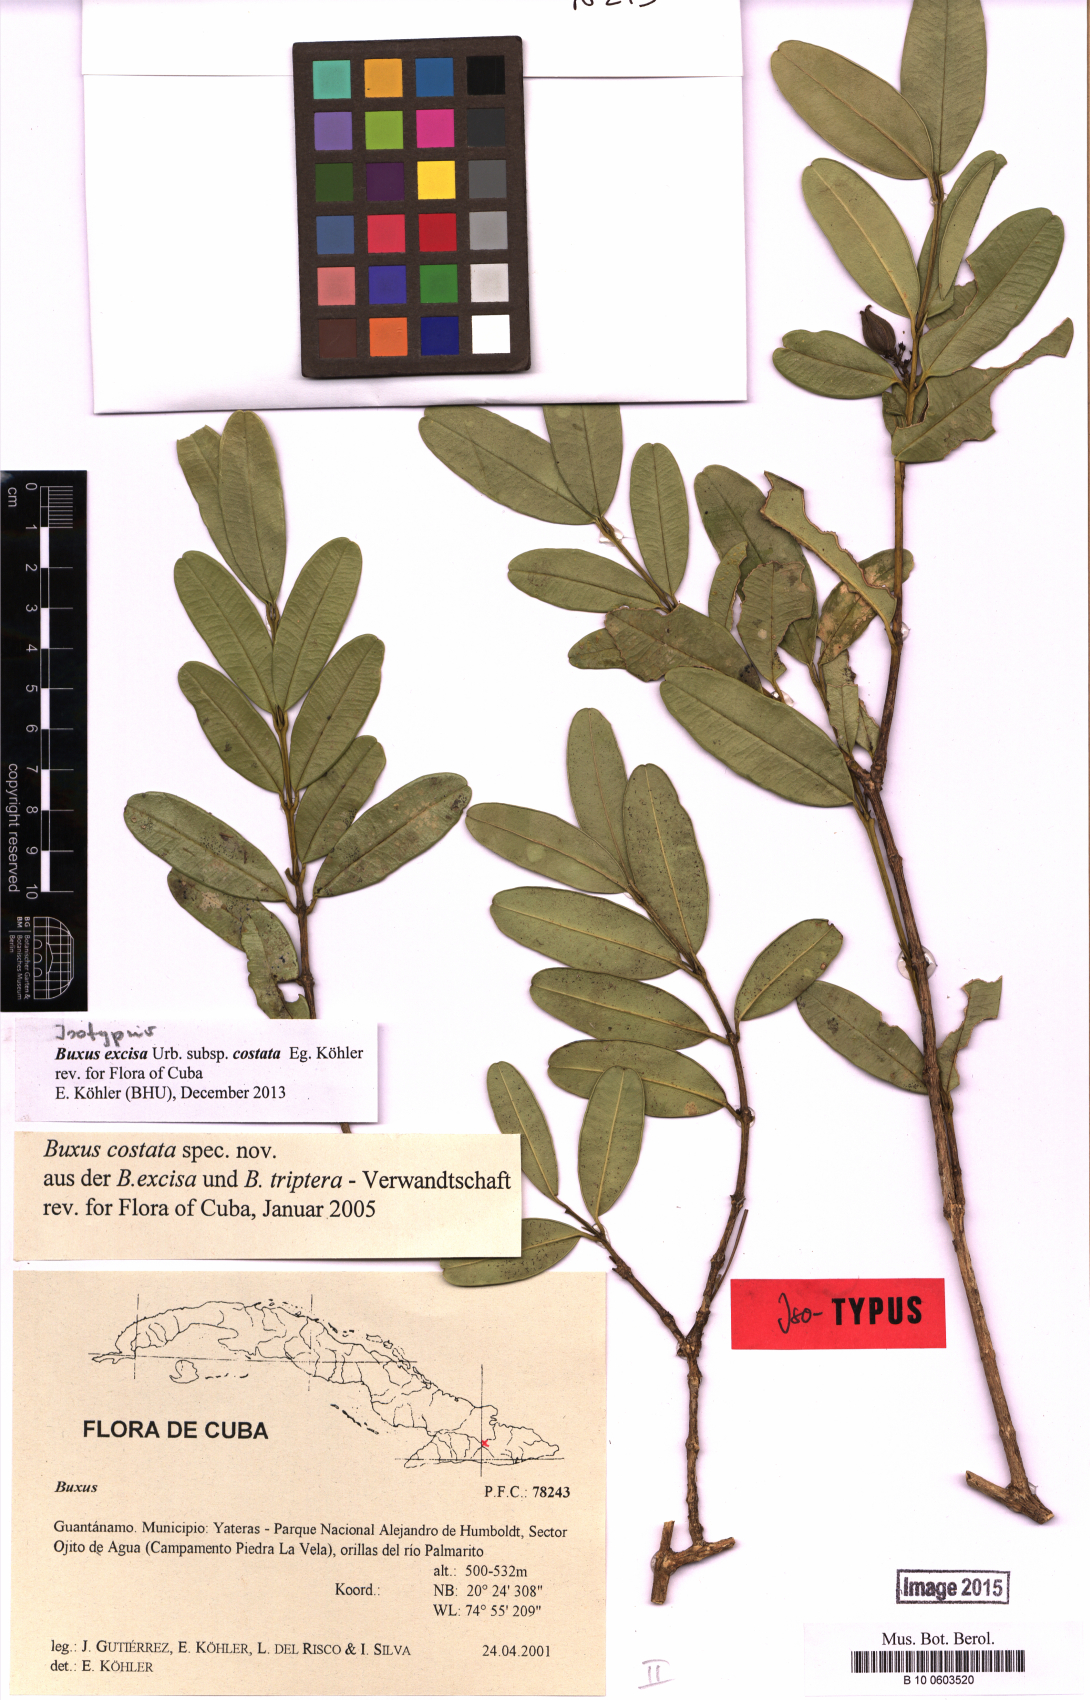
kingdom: Plantae
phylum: Tracheophyta
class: Magnoliopsida
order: Buxales
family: Buxaceae
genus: Buxus
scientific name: Buxus excisa
